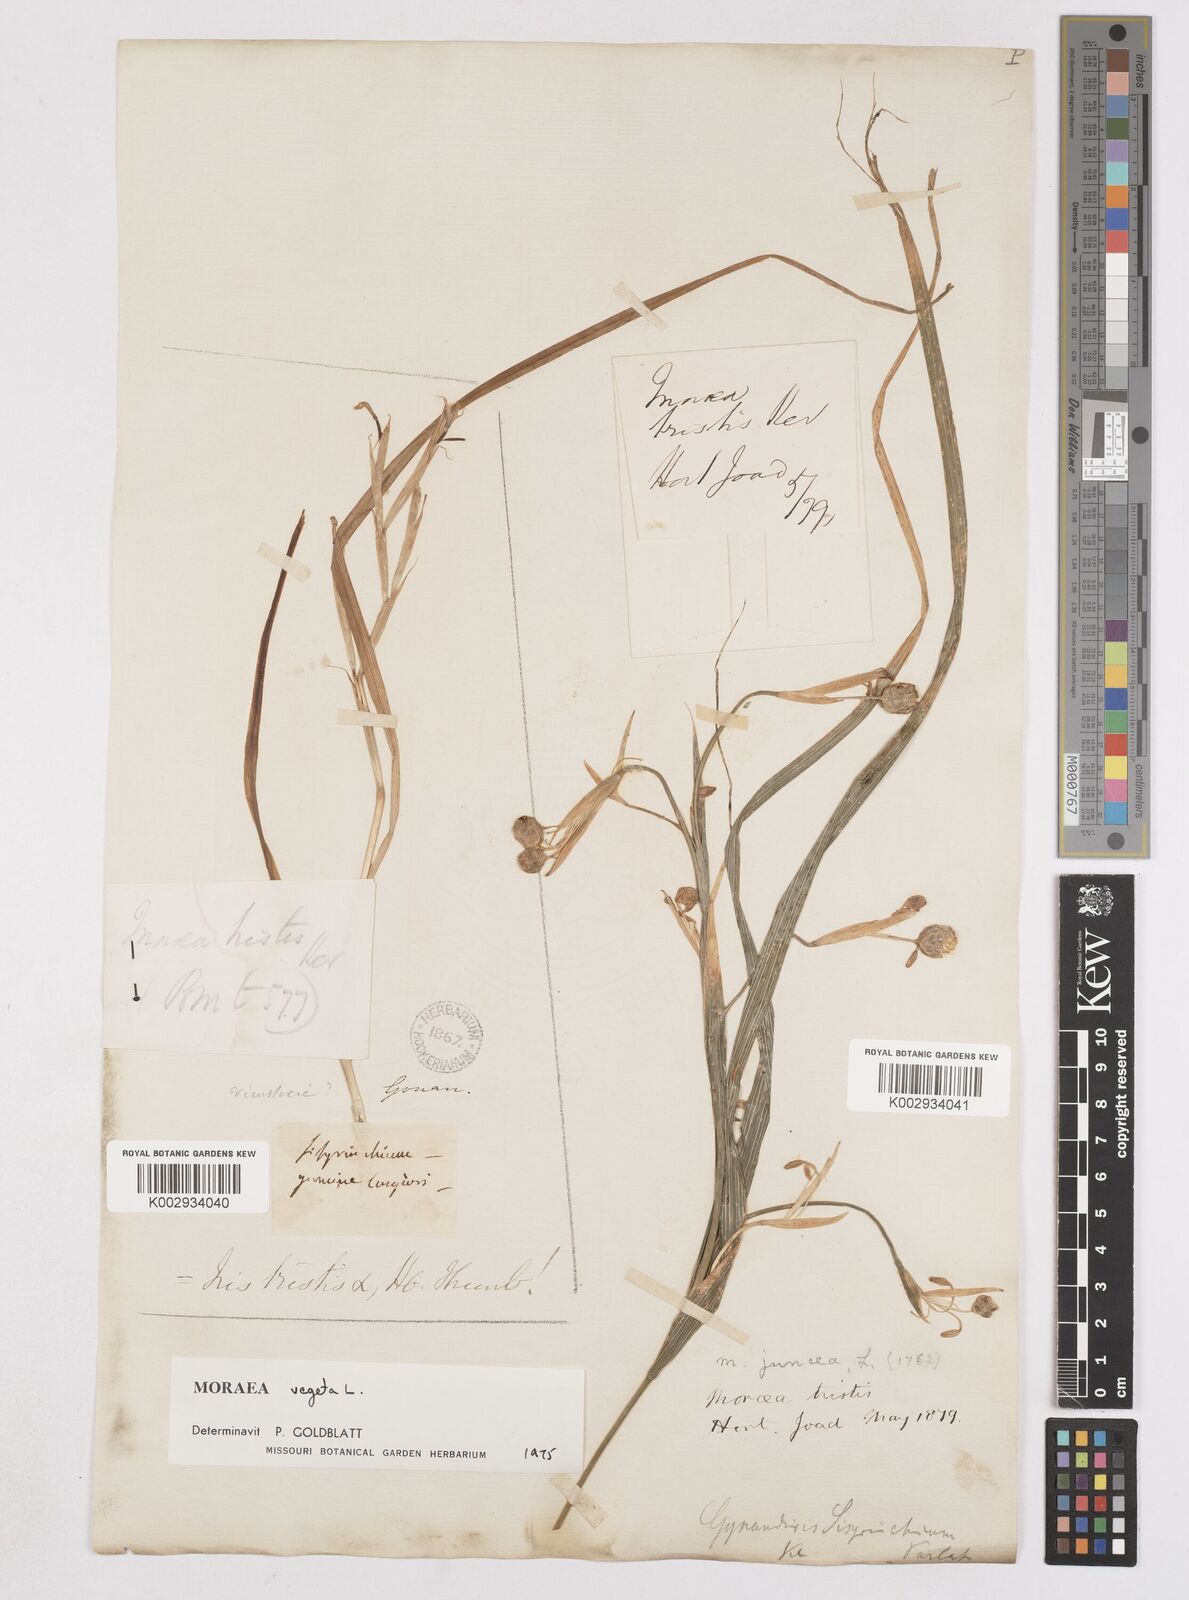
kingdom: Plantae
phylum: Tracheophyta
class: Liliopsida
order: Asparagales
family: Iridaceae
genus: Moraea
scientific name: Moraea vegeta
